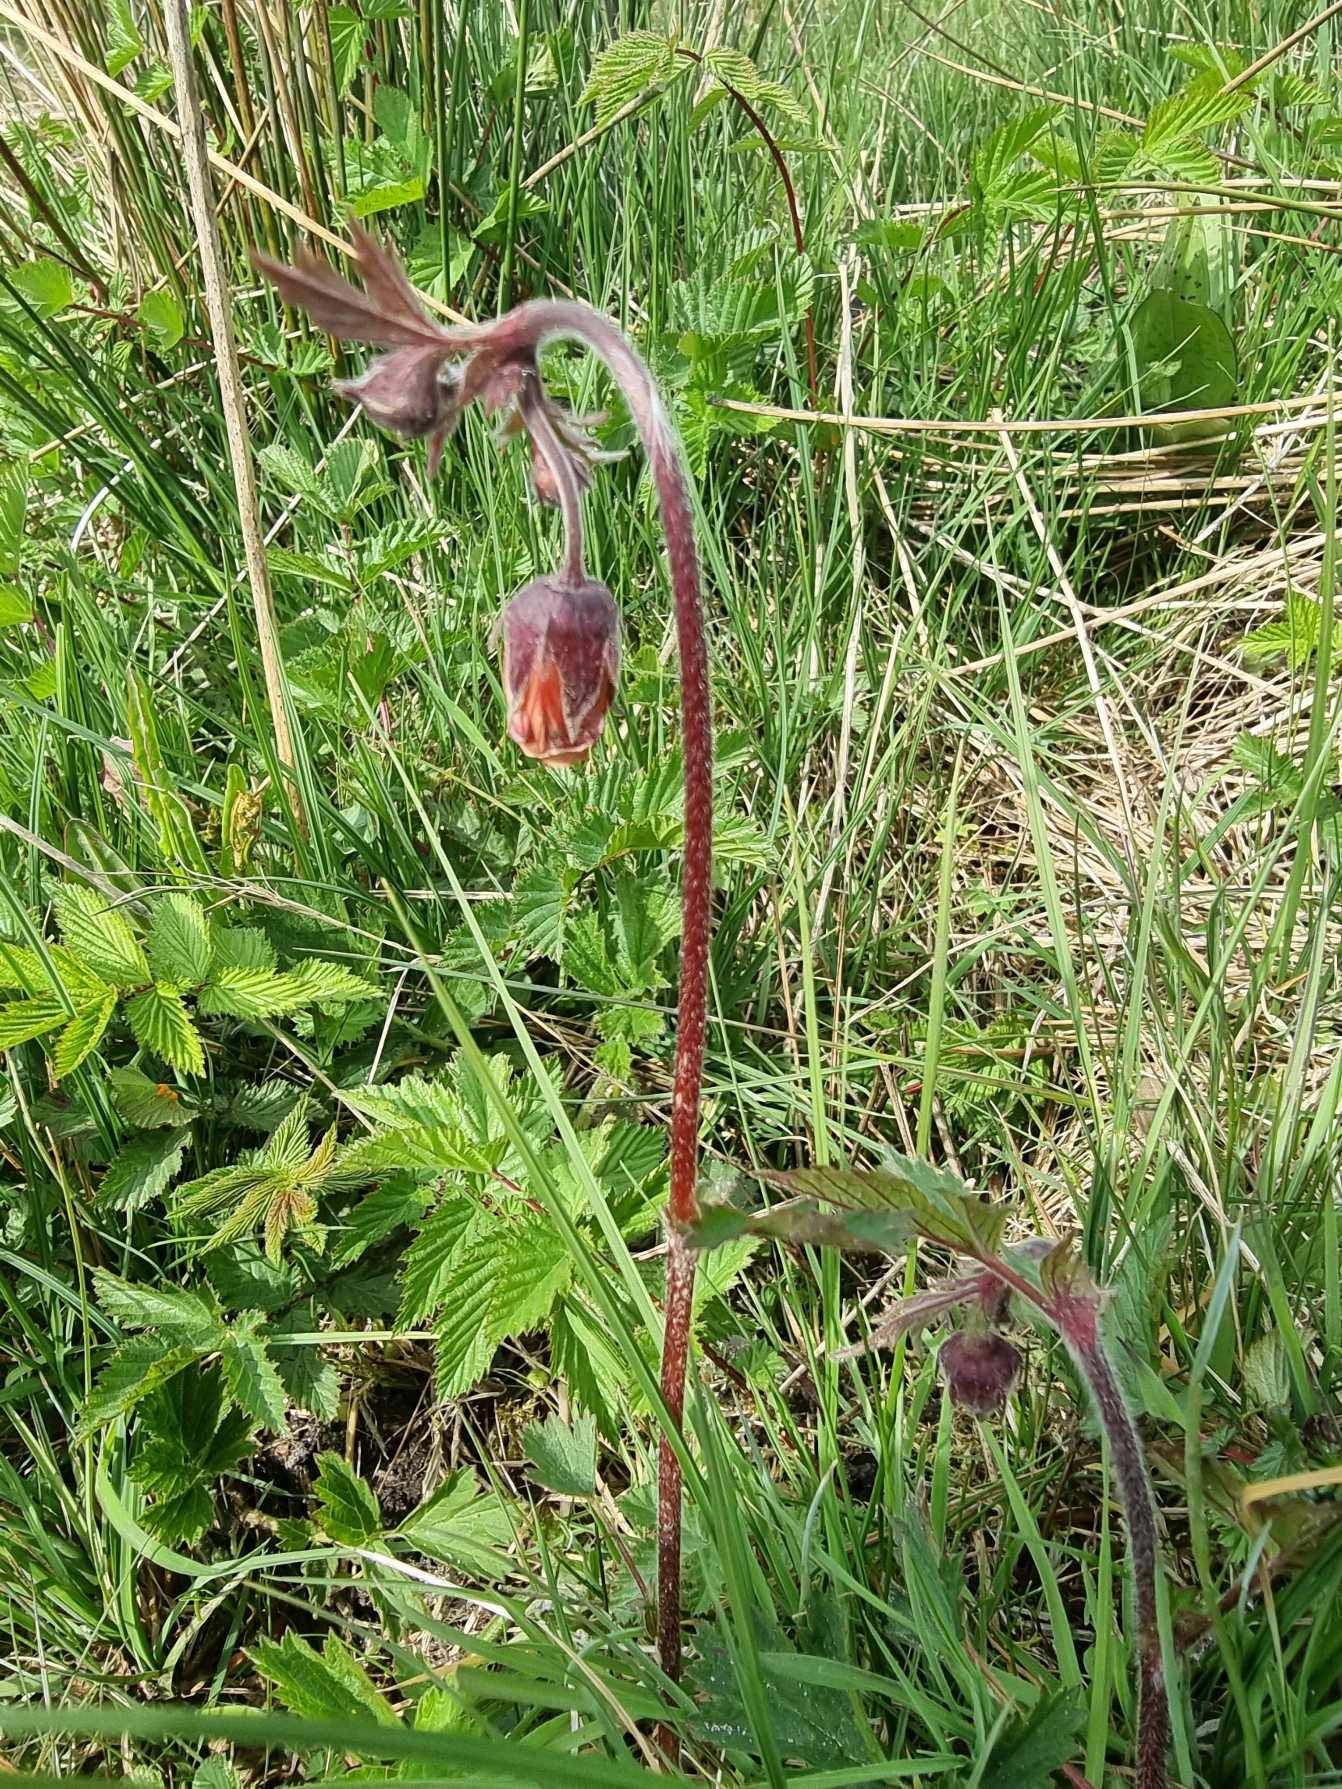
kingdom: Plantae
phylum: Tracheophyta
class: Magnoliopsida
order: Rosales
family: Rosaceae
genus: Geum
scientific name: Geum rivale
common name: Eng-nellikerod
